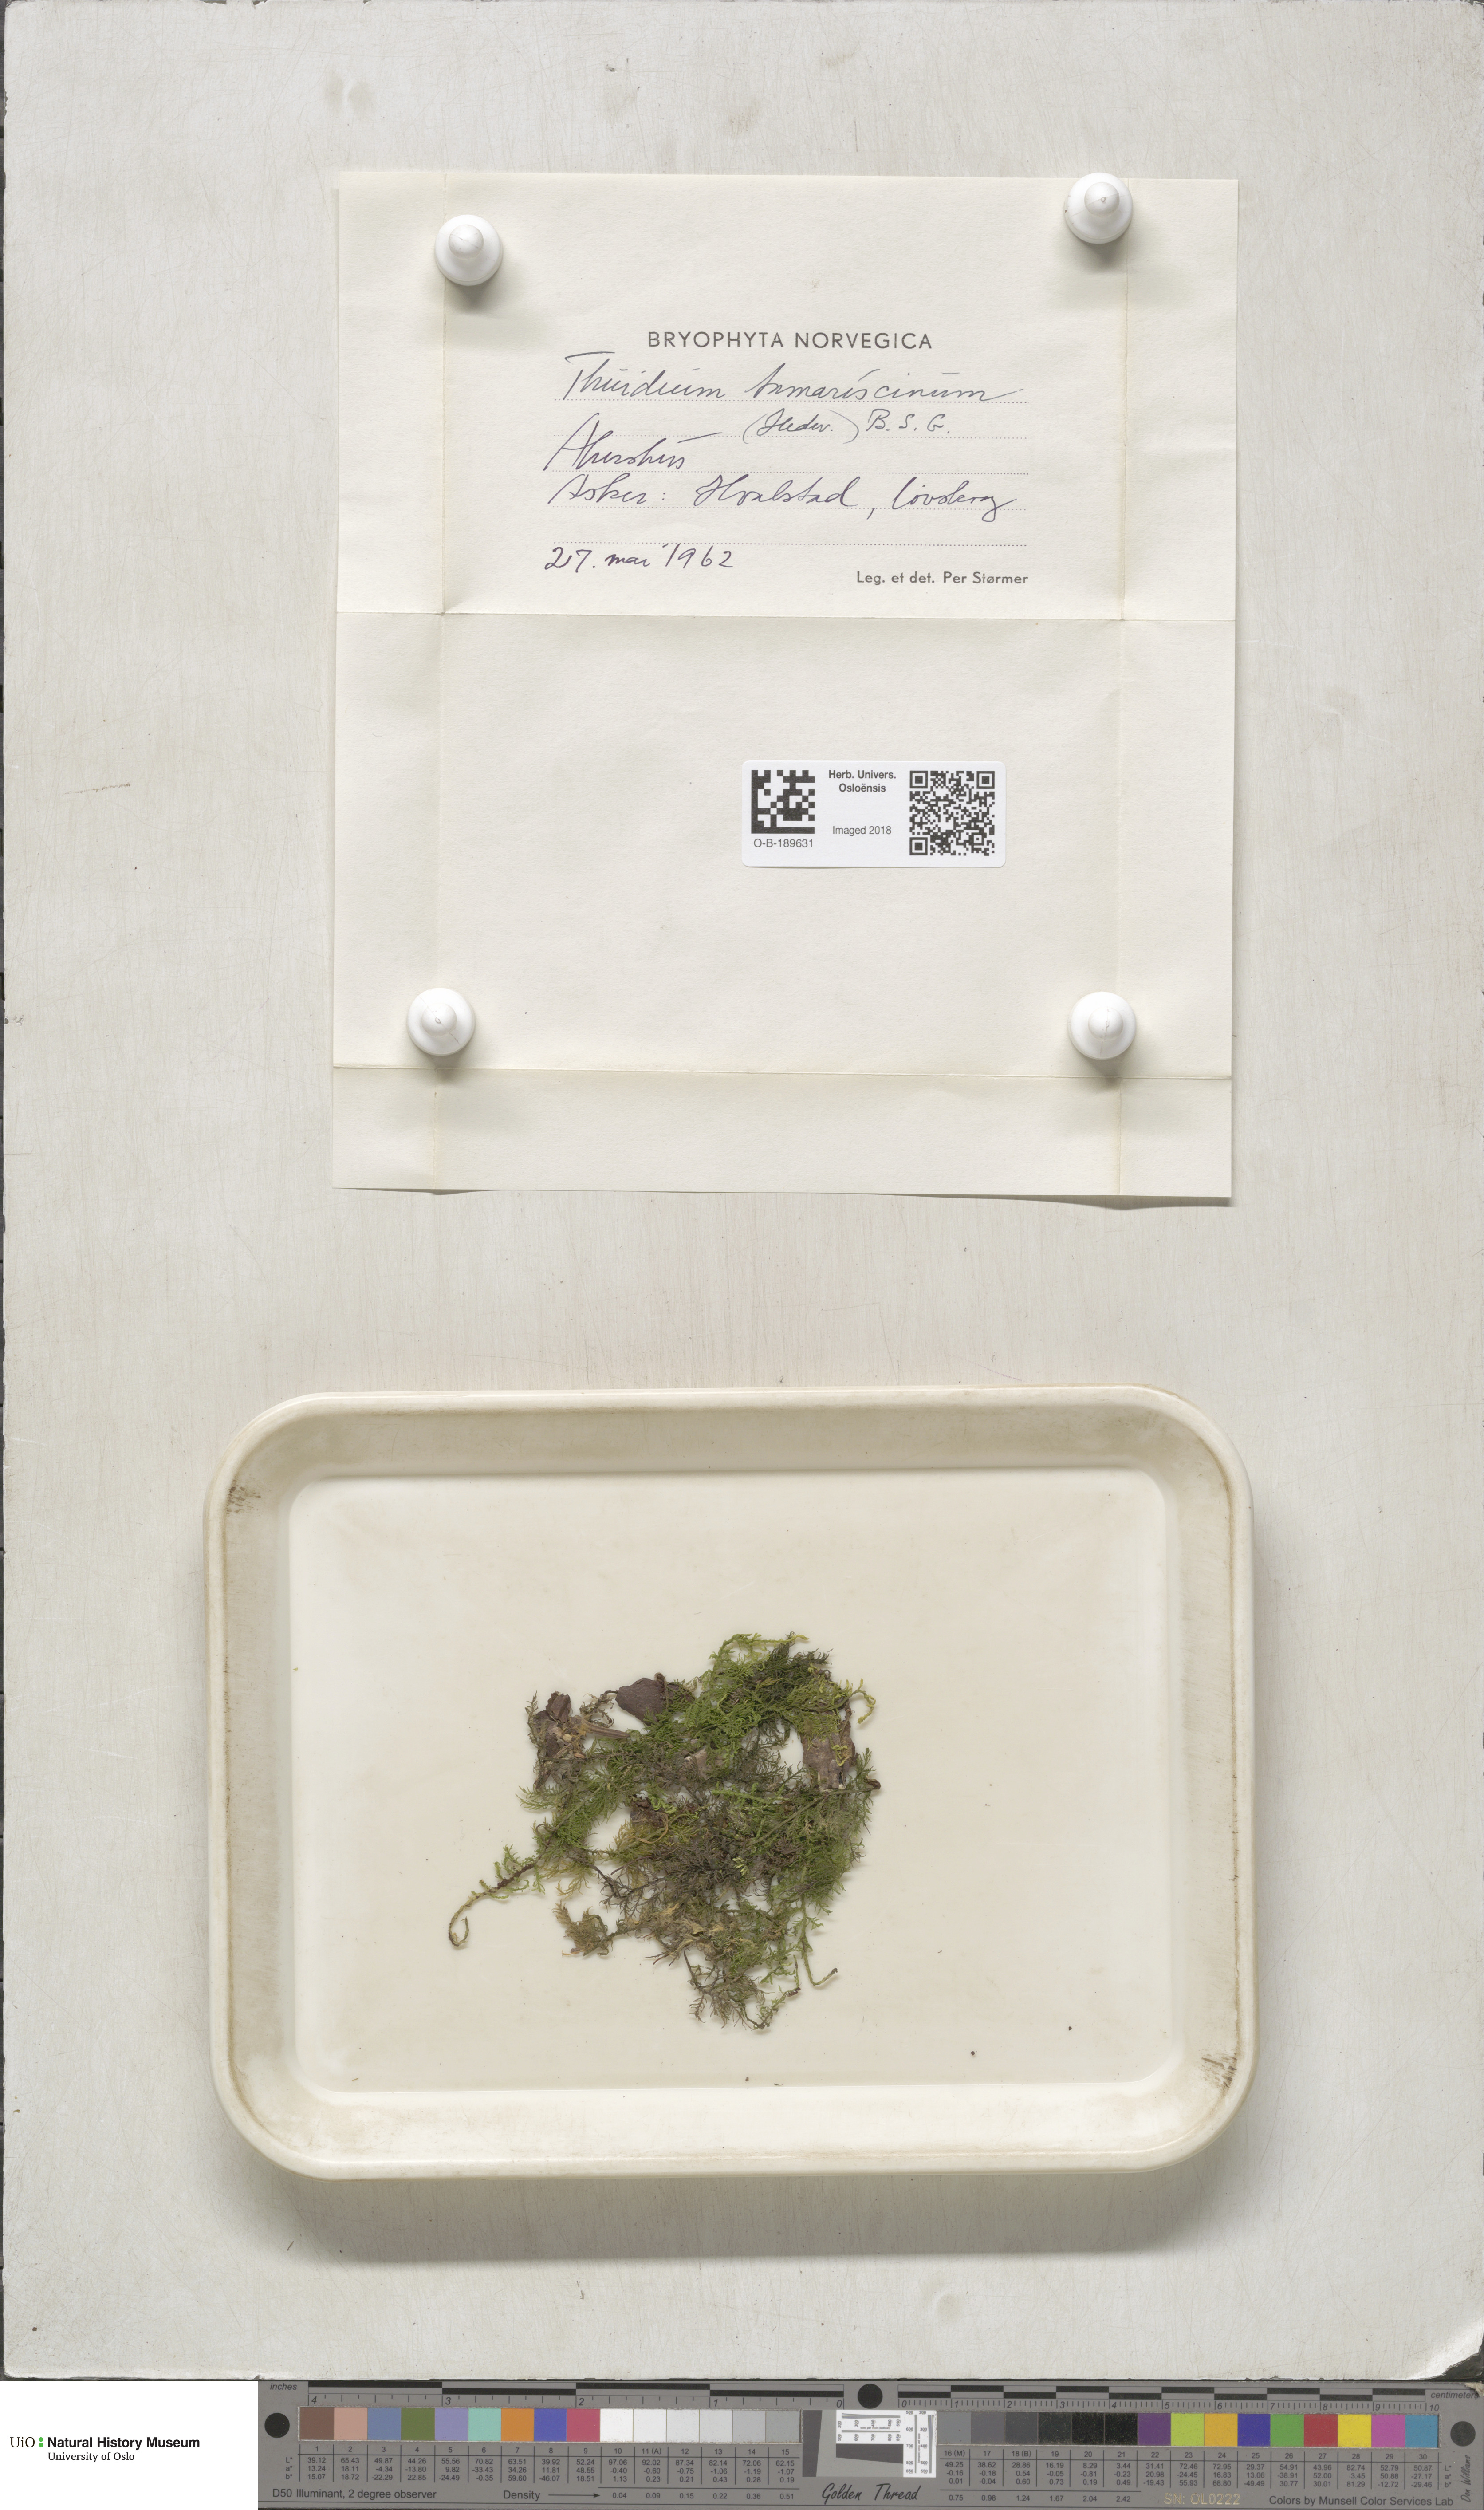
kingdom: Plantae
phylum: Bryophyta
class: Bryopsida
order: Hypnales
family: Thuidiaceae
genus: Thuidium
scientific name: Thuidium tamariscinum
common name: Common tamarisk-moss
